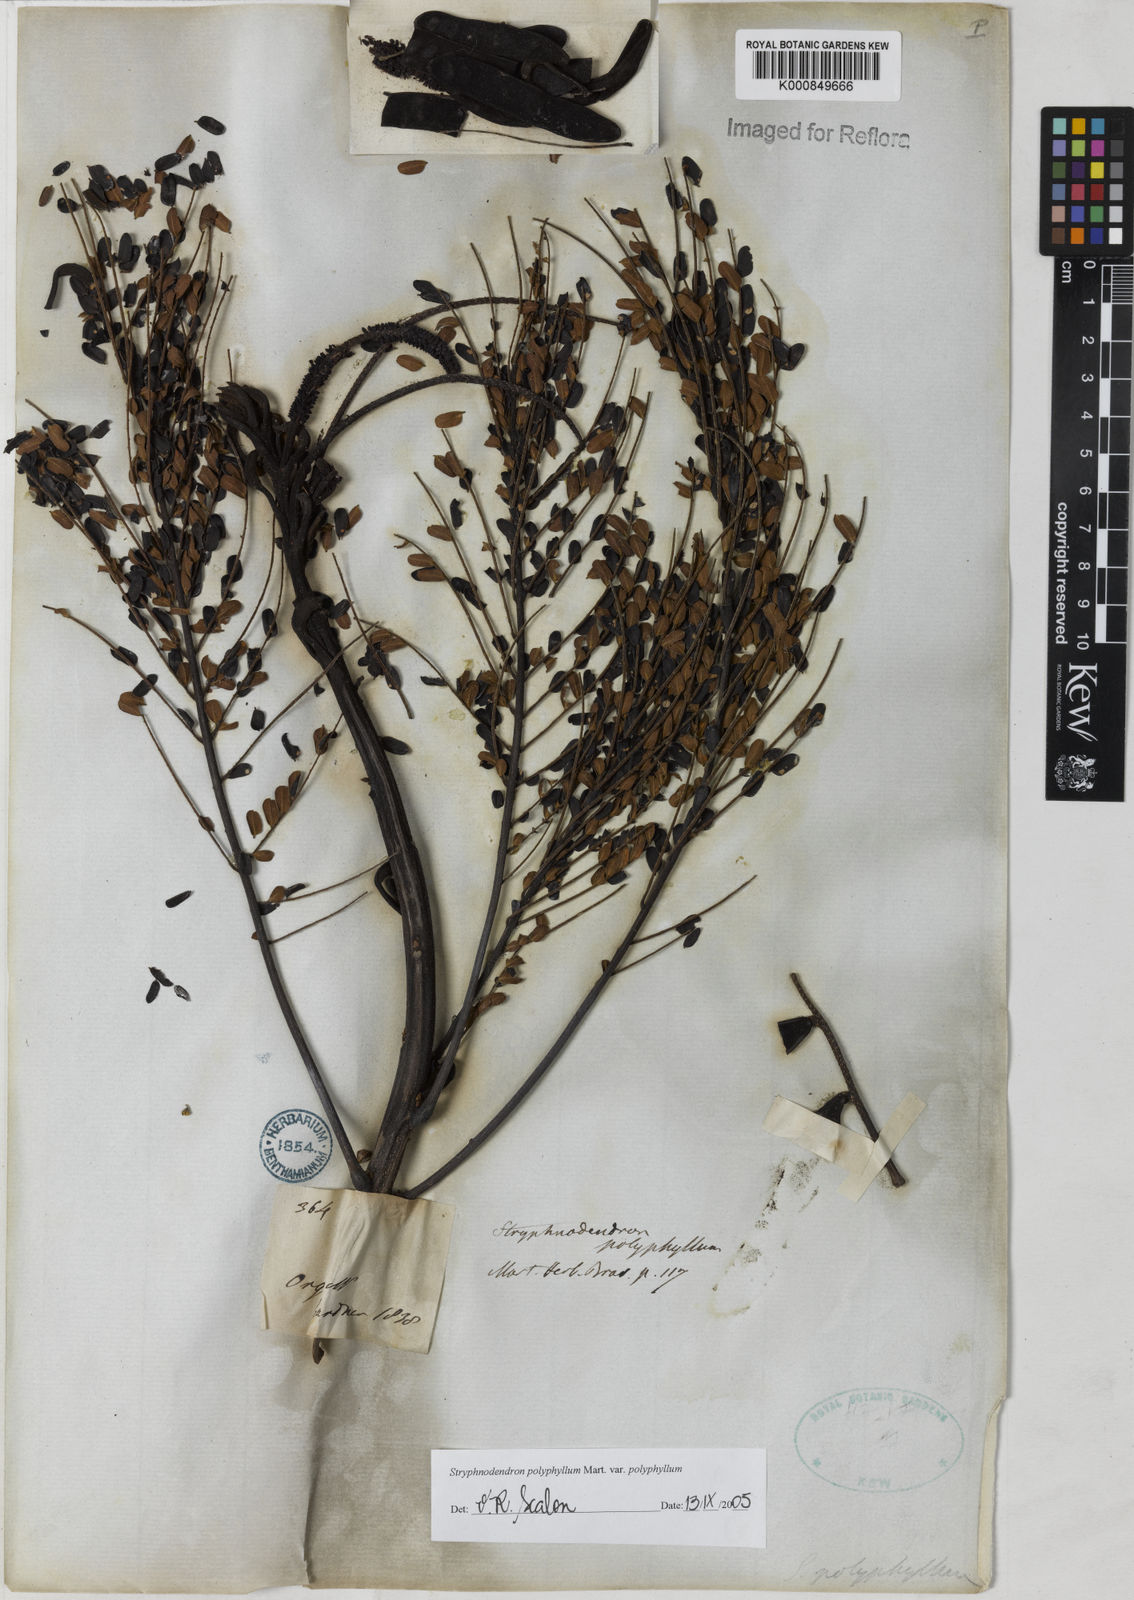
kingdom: Plantae
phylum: Tracheophyta
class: Magnoliopsida
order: Fabales
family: Fabaceae
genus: Stryphnodendron
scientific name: Stryphnodendron polyphyllum
